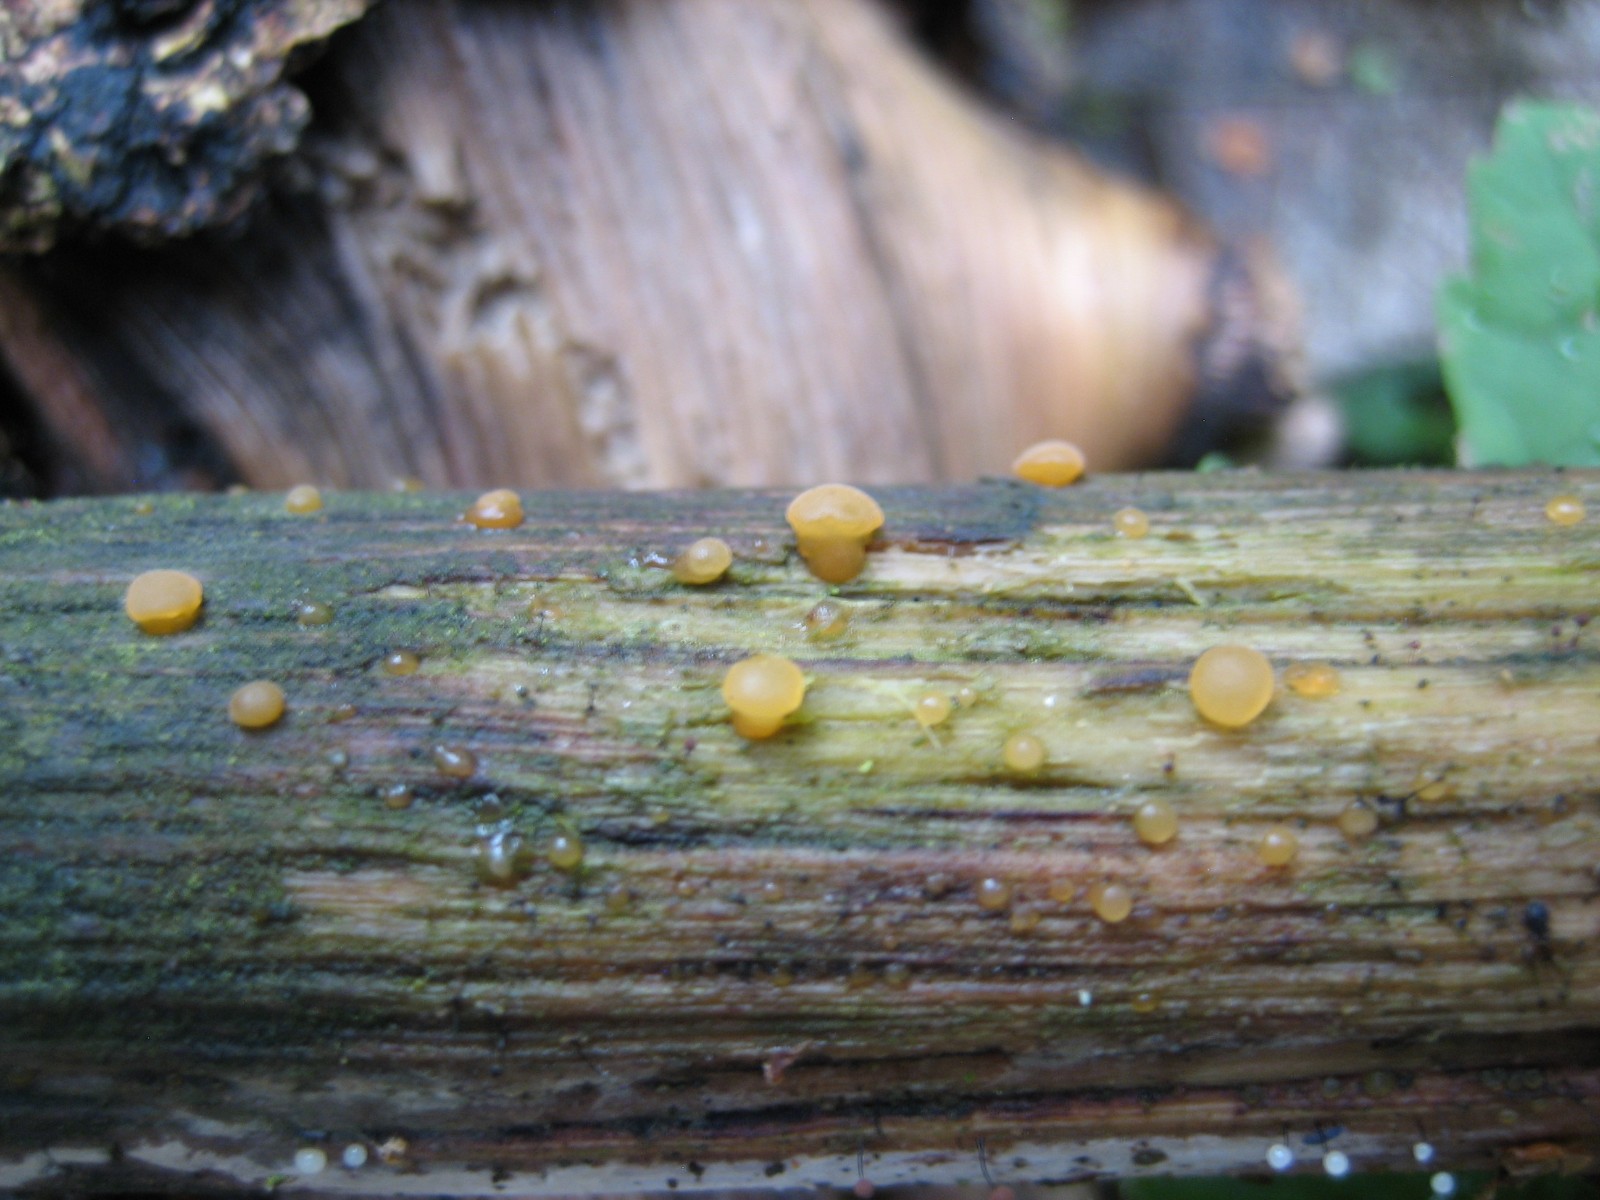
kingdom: Fungi
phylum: Basidiomycota
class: Dacrymycetes
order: Dacrymycetales
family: Dacrymycetaceae
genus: Dacrymyces
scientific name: Dacrymyces capitatus
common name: stilket tåresvamp
